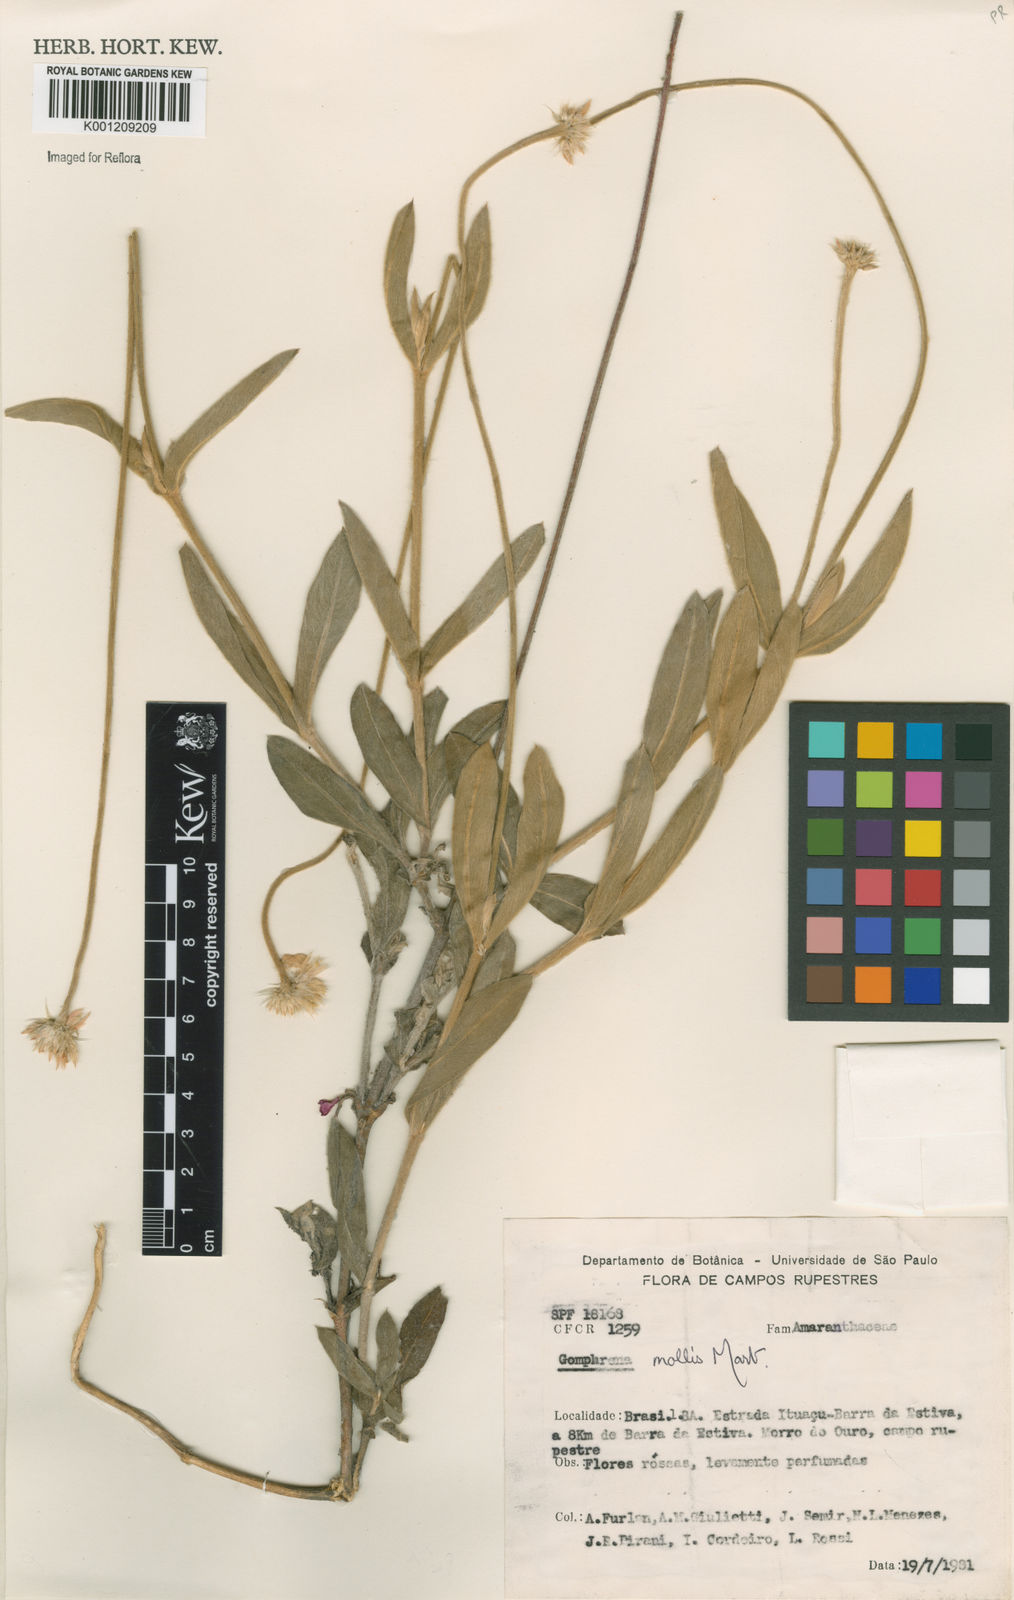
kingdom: Plantae
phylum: Tracheophyta
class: Magnoliopsida
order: Caryophyllales
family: Amaranthaceae
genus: Gomphrena
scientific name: Gomphrena mollis
